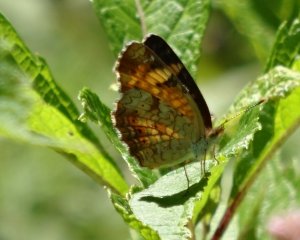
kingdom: Animalia
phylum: Arthropoda
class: Insecta
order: Lepidoptera
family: Nymphalidae
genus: Phyciodes
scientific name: Phyciodes tharos
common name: Northern Crescent
